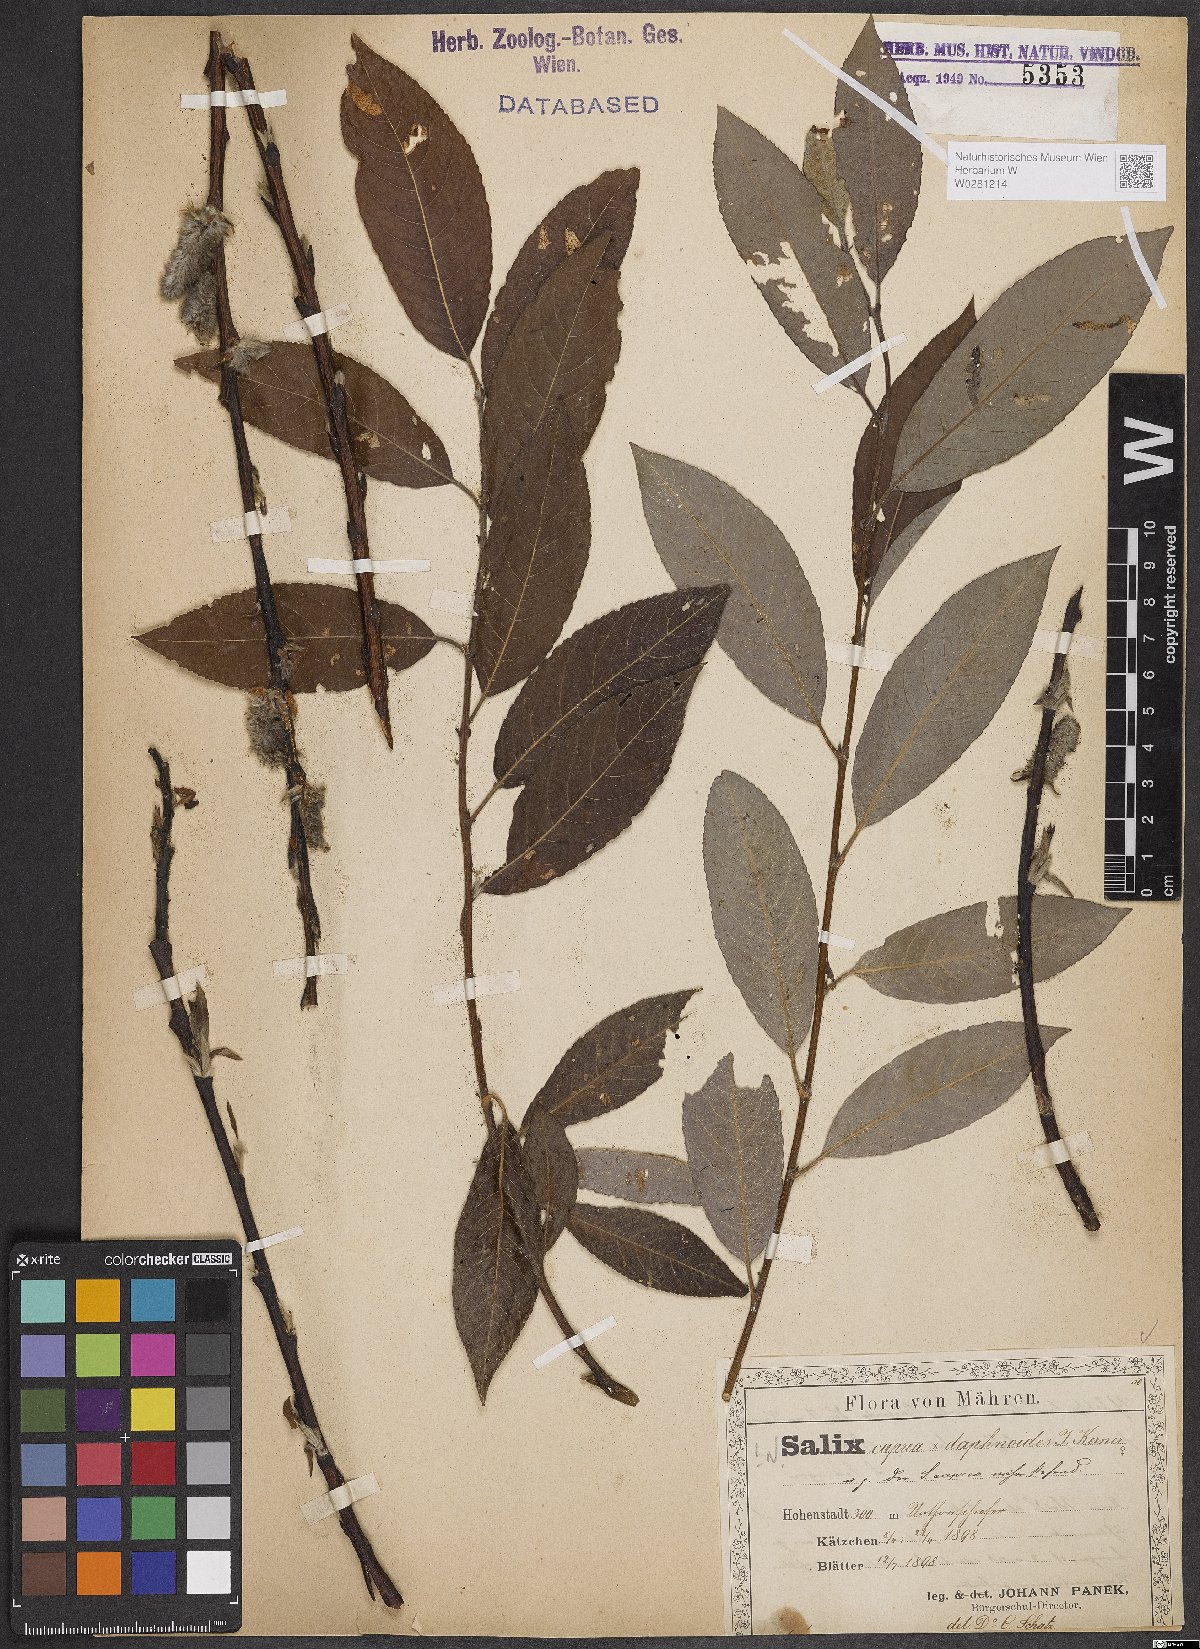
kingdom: Plantae
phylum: Tracheophyta
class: Magnoliopsida
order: Malpighiales
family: Salicaceae
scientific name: Salicaceae
